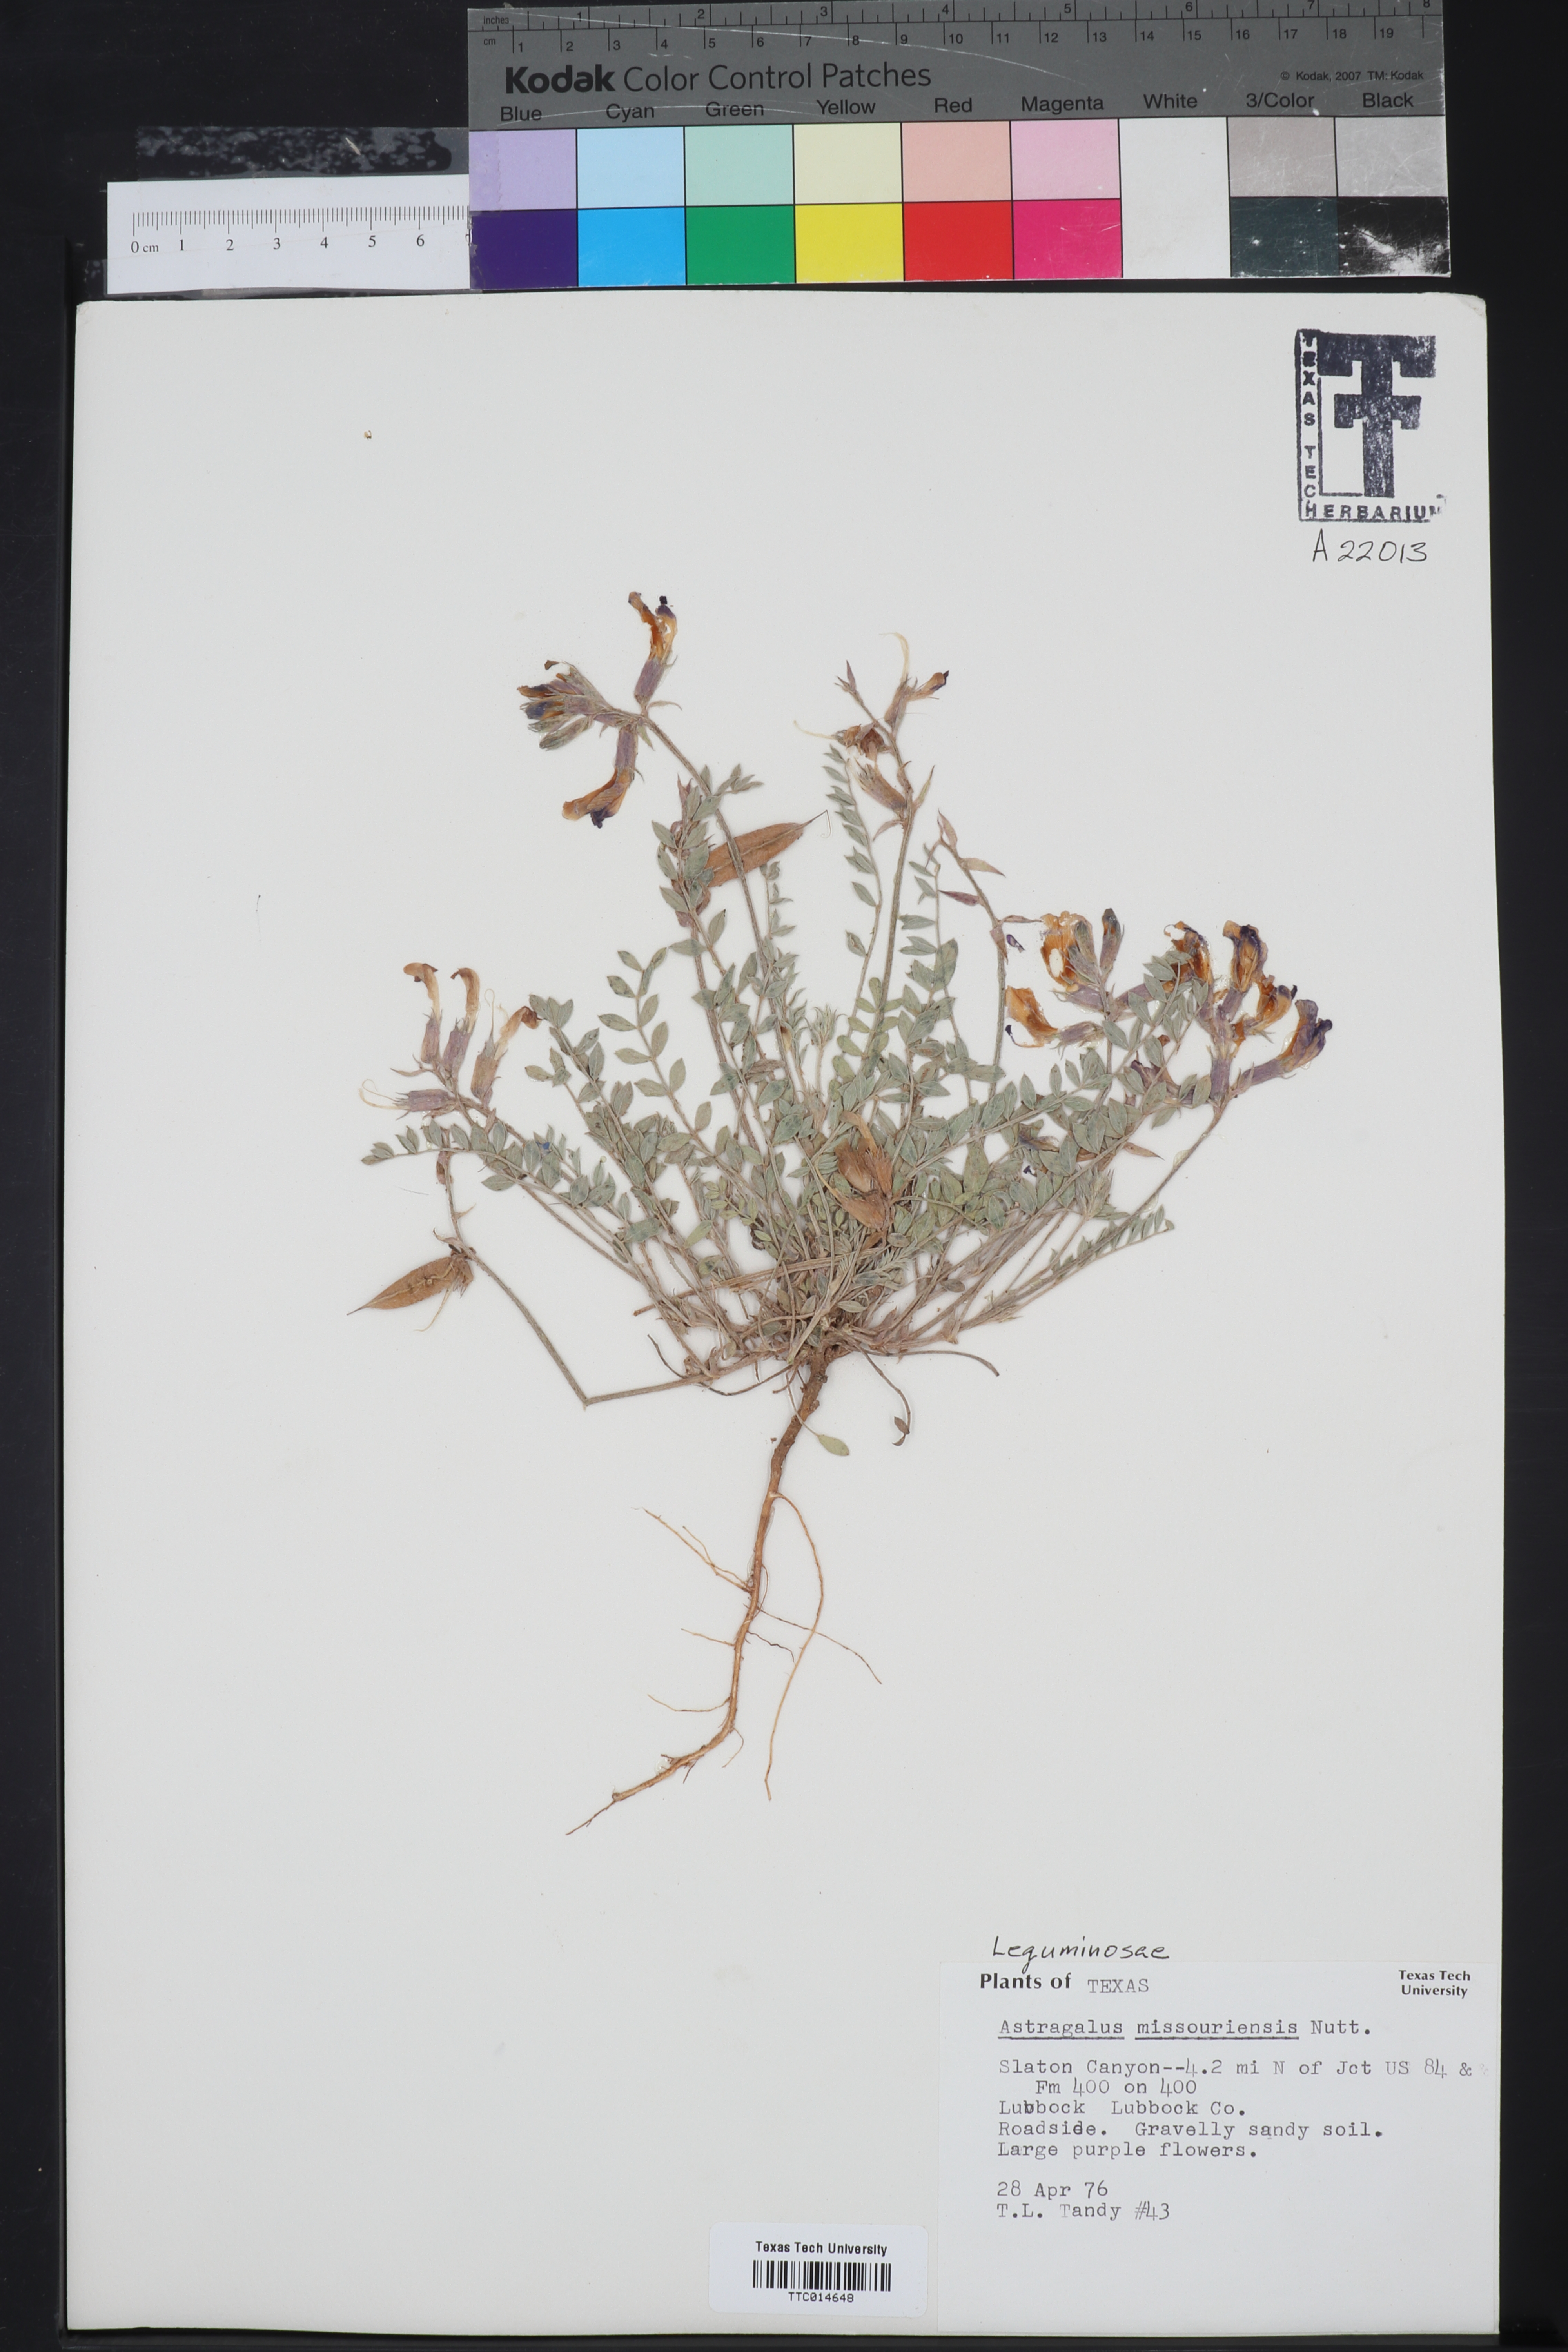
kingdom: Plantae
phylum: Tracheophyta
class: Magnoliopsida
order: Fabales
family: Fabaceae
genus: Astragalus
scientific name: Astragalus missouriensis
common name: Missouri milk-vetch
